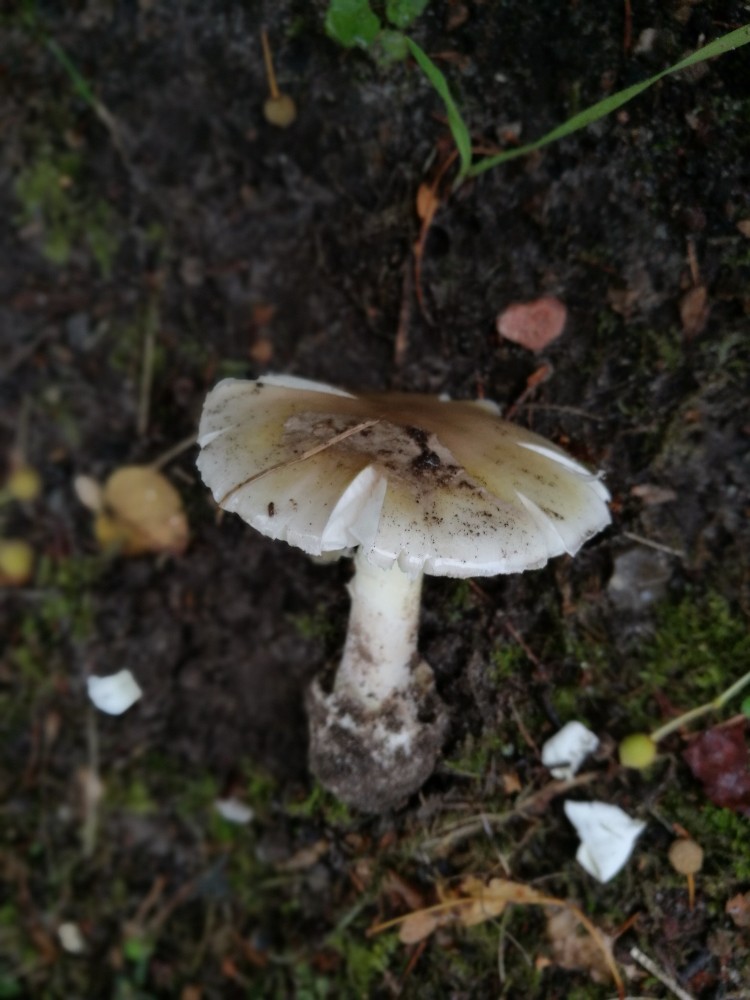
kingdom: Fungi
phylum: Basidiomycota
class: Agaricomycetes
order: Agaricales
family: Amanitaceae
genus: Amanita
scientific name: Amanita phalloides
